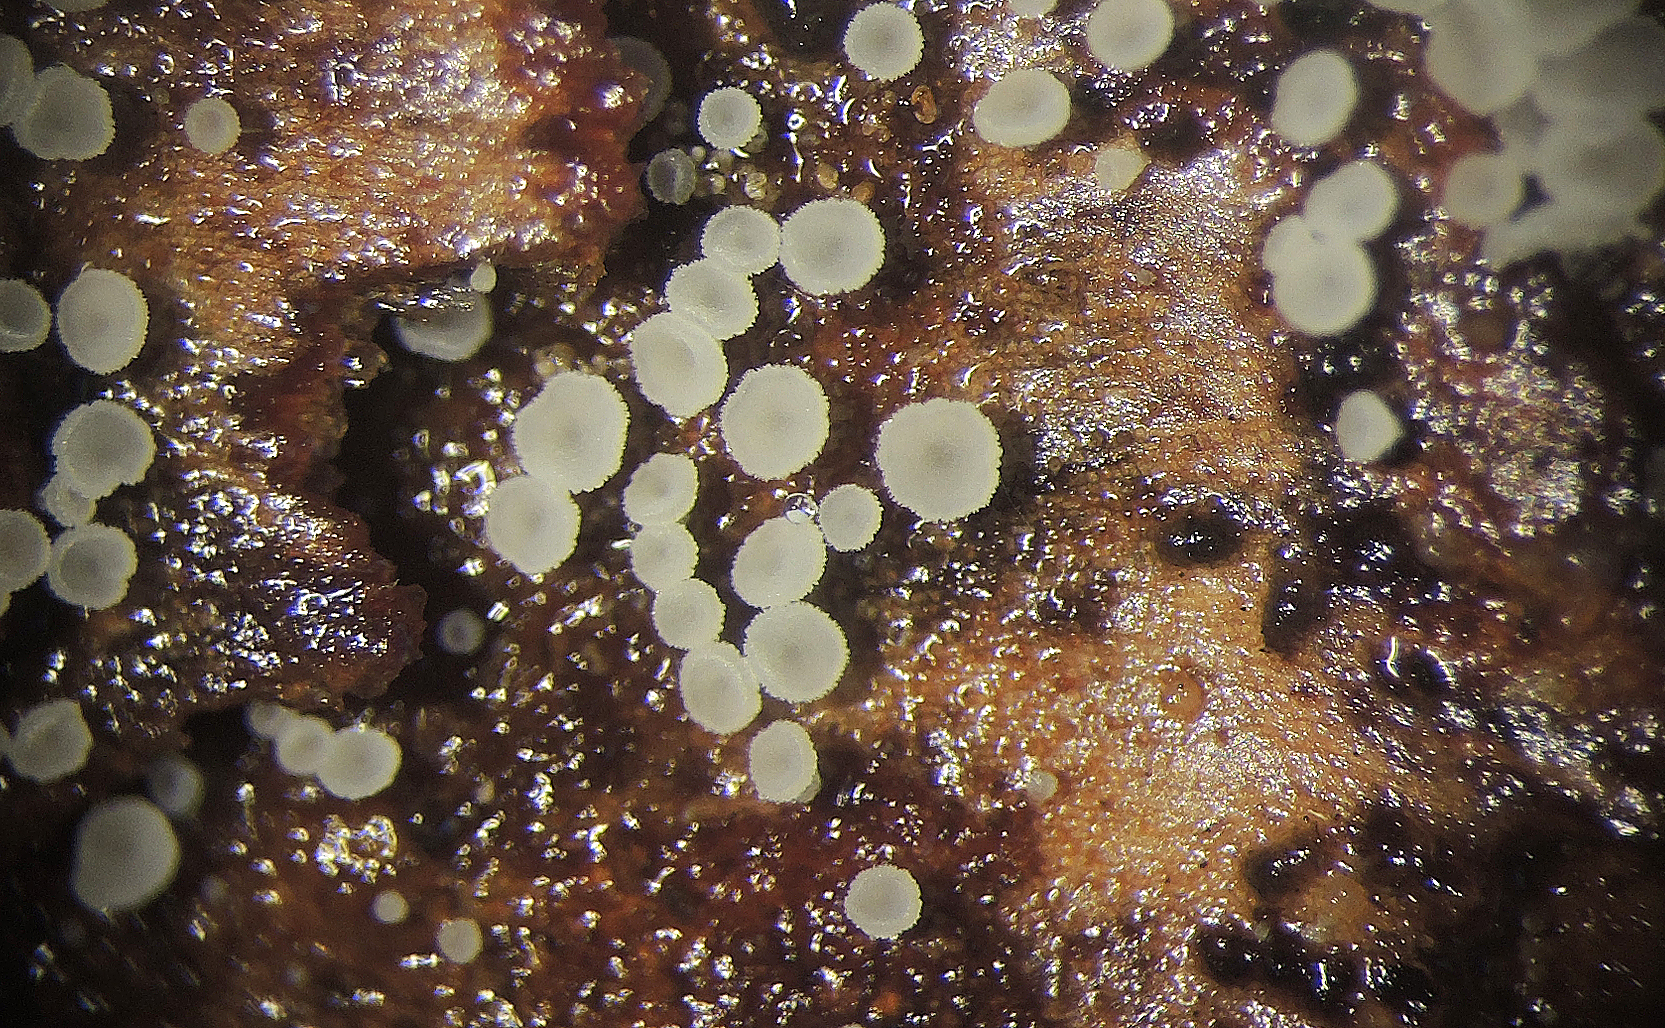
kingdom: Fungi
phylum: Ascomycota
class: Leotiomycetes
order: Helotiales
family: Hyaloscyphaceae
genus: Cistella
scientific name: Cistella acuum
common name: nåle-sirskive
